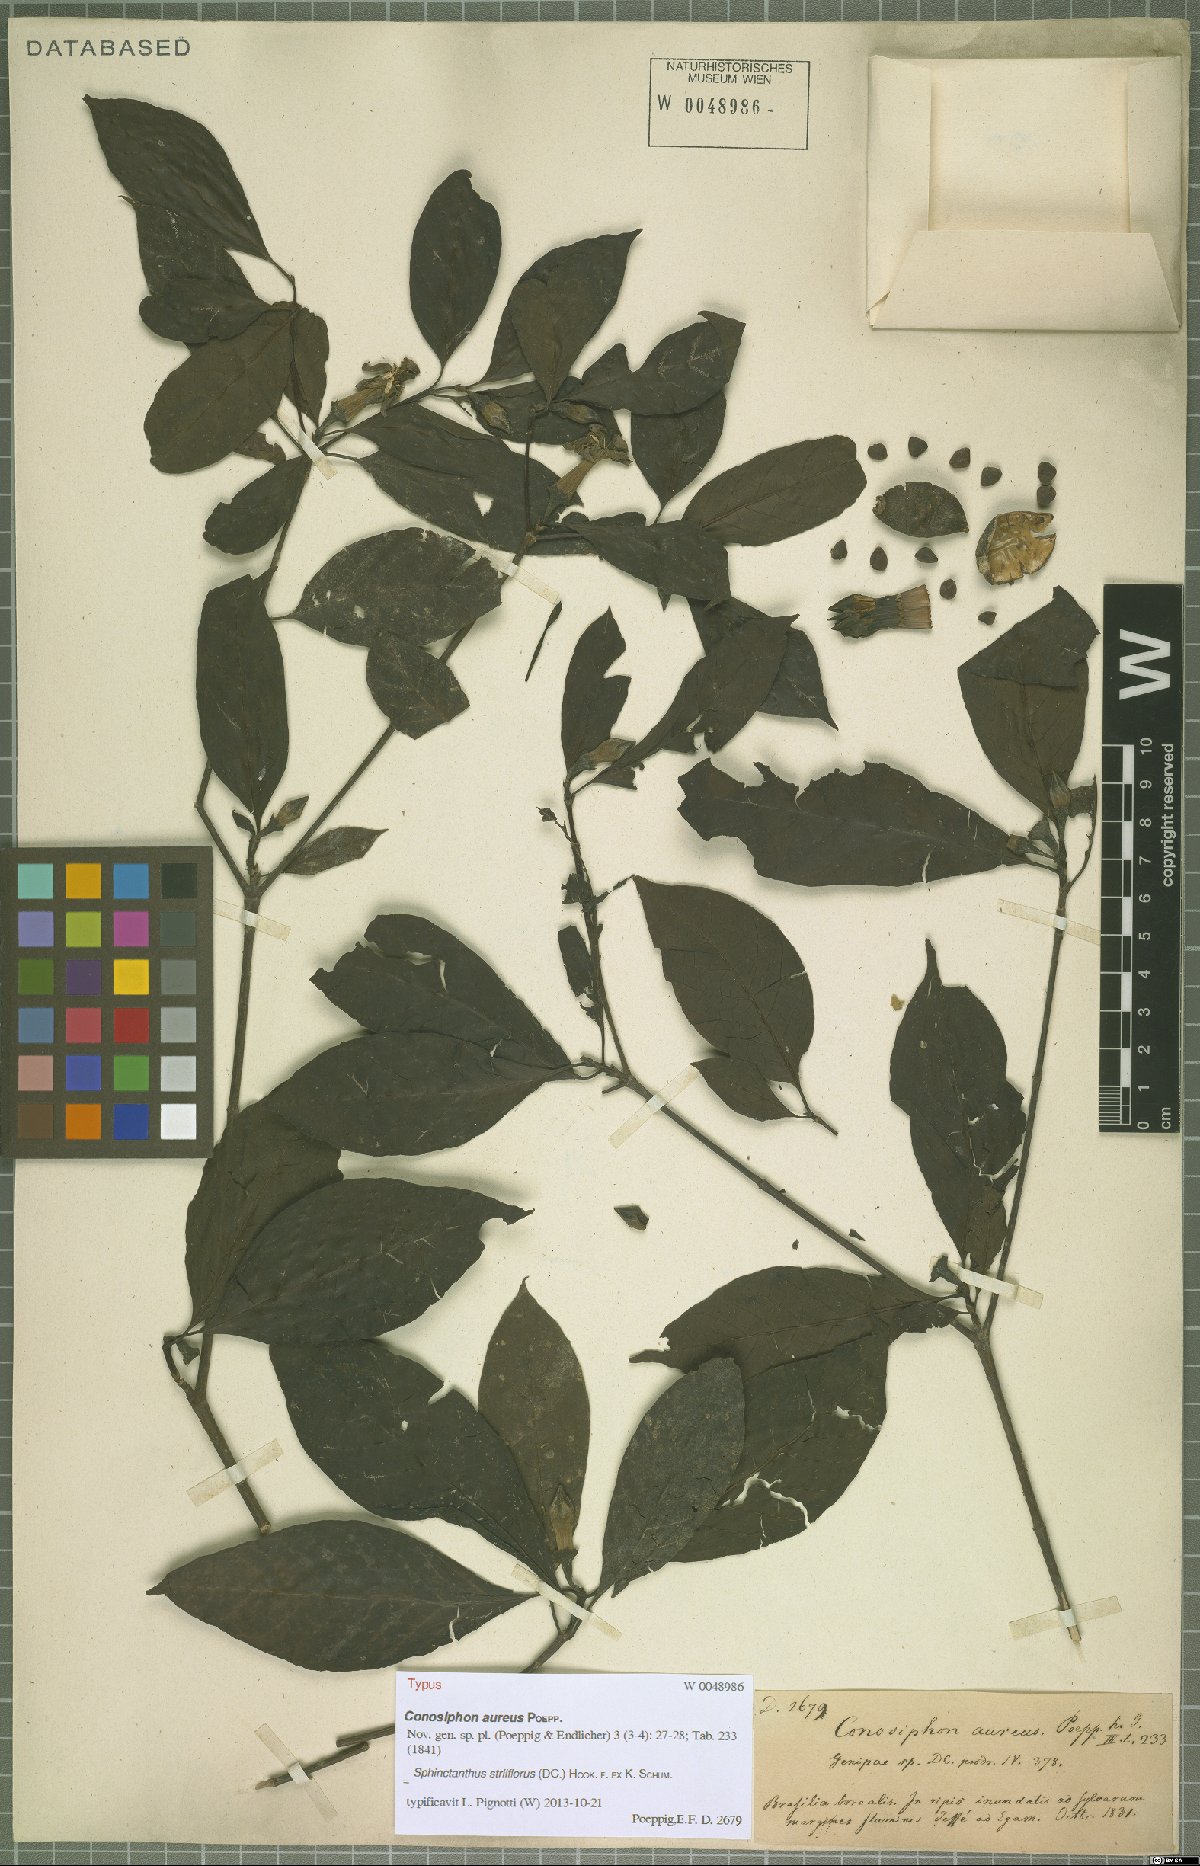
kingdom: Plantae
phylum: Tracheophyta
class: Magnoliopsida
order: Gentianales
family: Rubiaceae
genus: Sphinctanthus
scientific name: Sphinctanthus striiflorus
